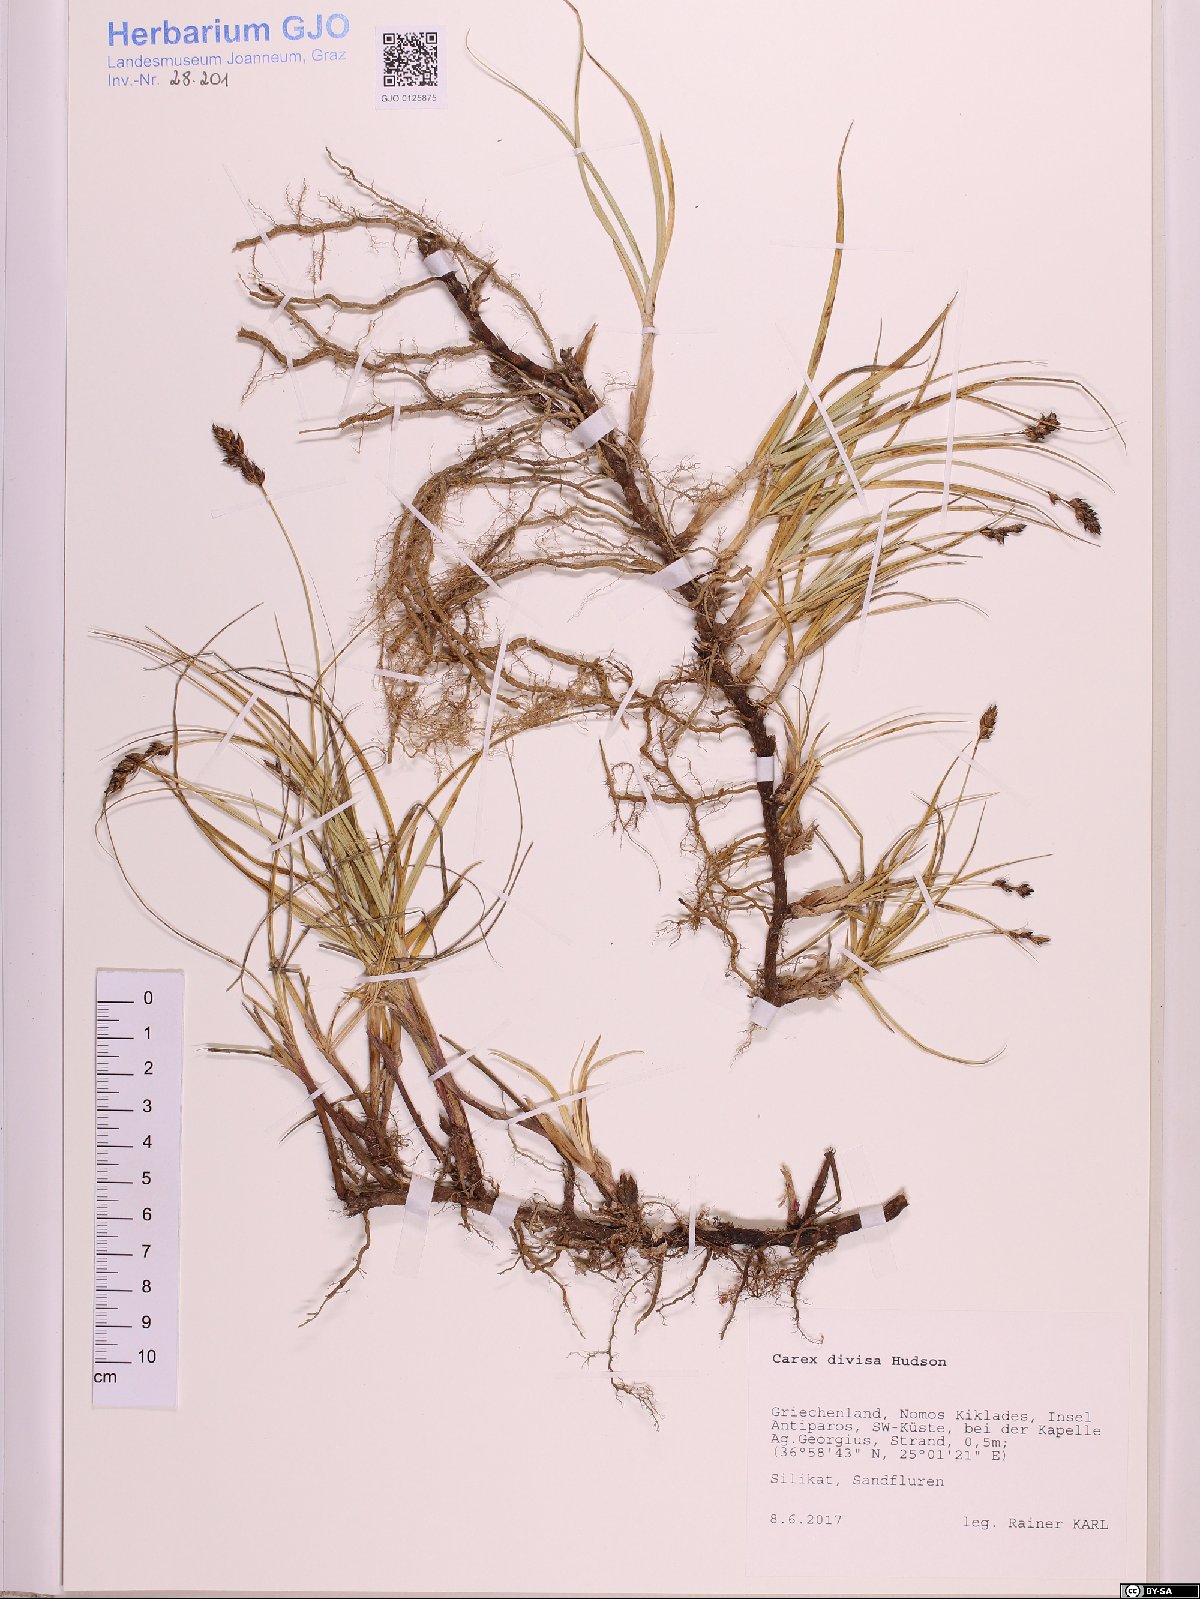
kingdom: Plantae
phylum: Tracheophyta
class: Liliopsida
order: Poales
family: Cyperaceae
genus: Carex
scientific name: Carex divisa
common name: Divided sedge
